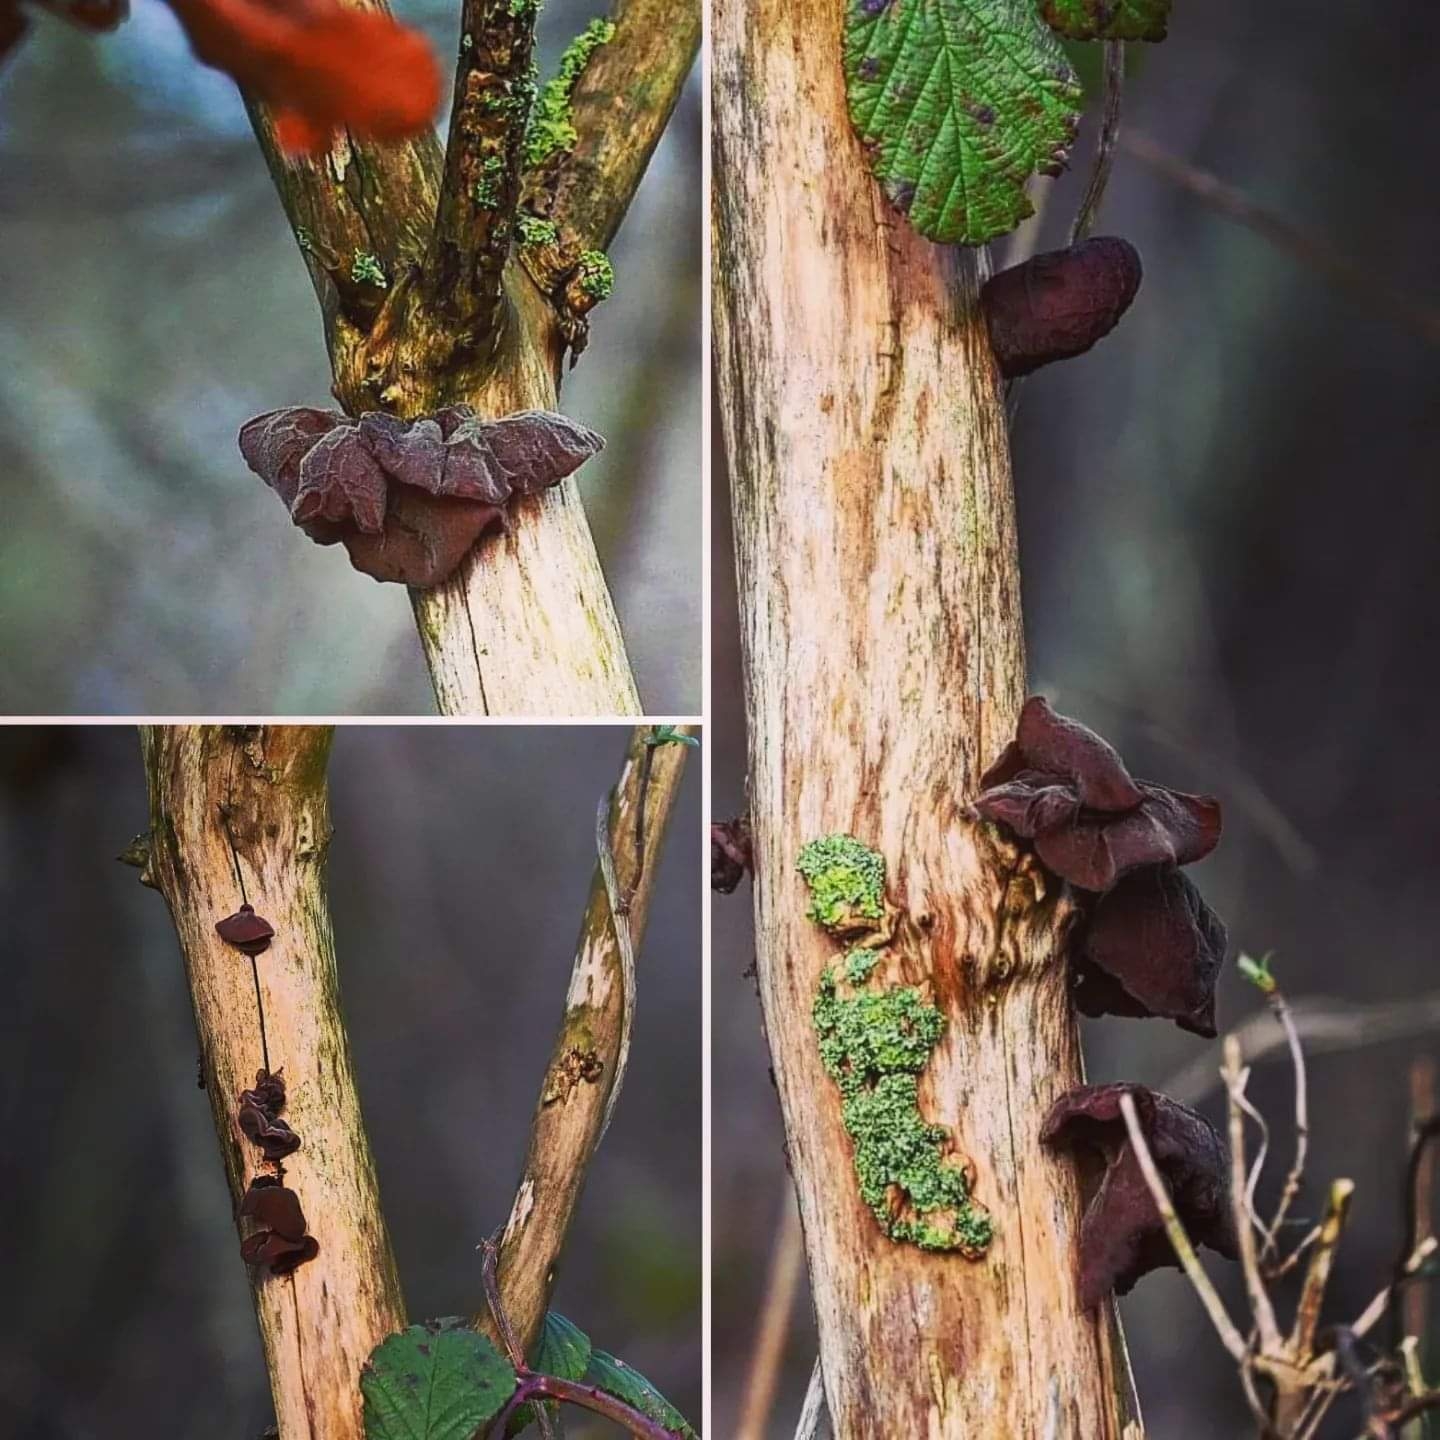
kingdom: Fungi
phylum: Basidiomycota
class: Agaricomycetes
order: Auriculariales
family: Auriculariaceae
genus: Auricularia
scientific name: Auricularia auricula-judae
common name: almindelig judasøre
